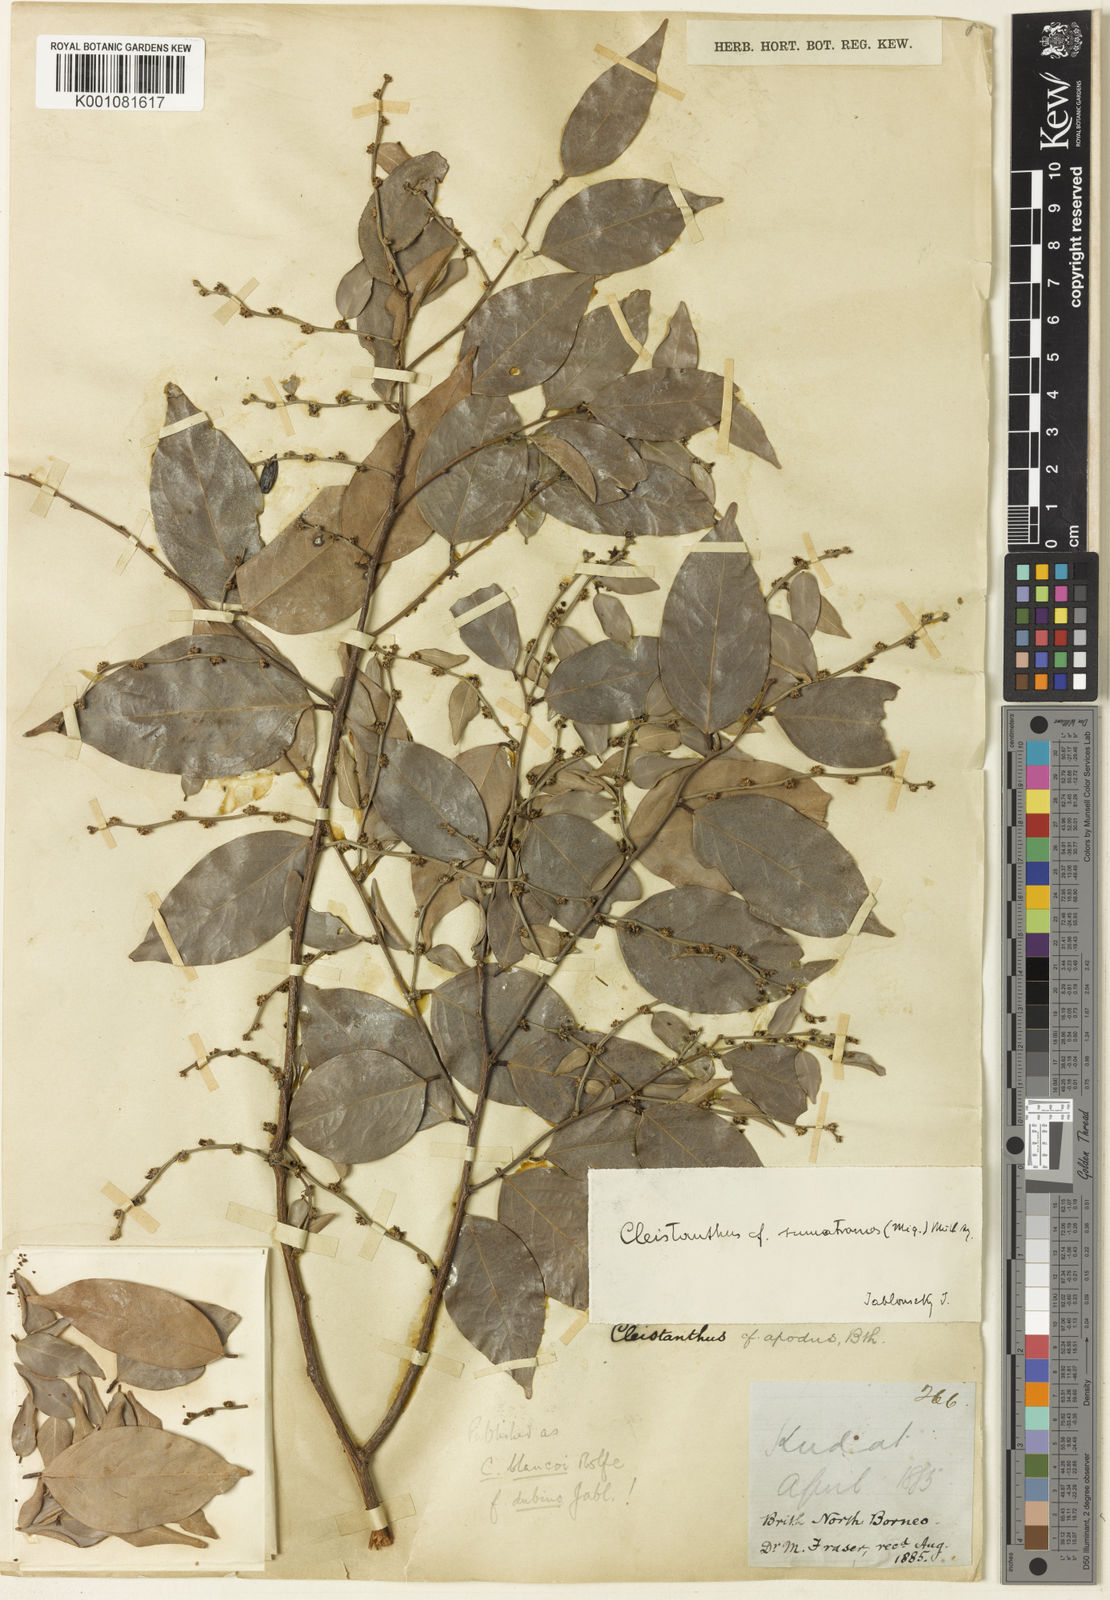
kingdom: Plantae
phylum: Tracheophyta
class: Magnoliopsida
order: Malpighiales
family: Phyllanthaceae
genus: Cleistanthus
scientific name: Cleistanthus gracilis
